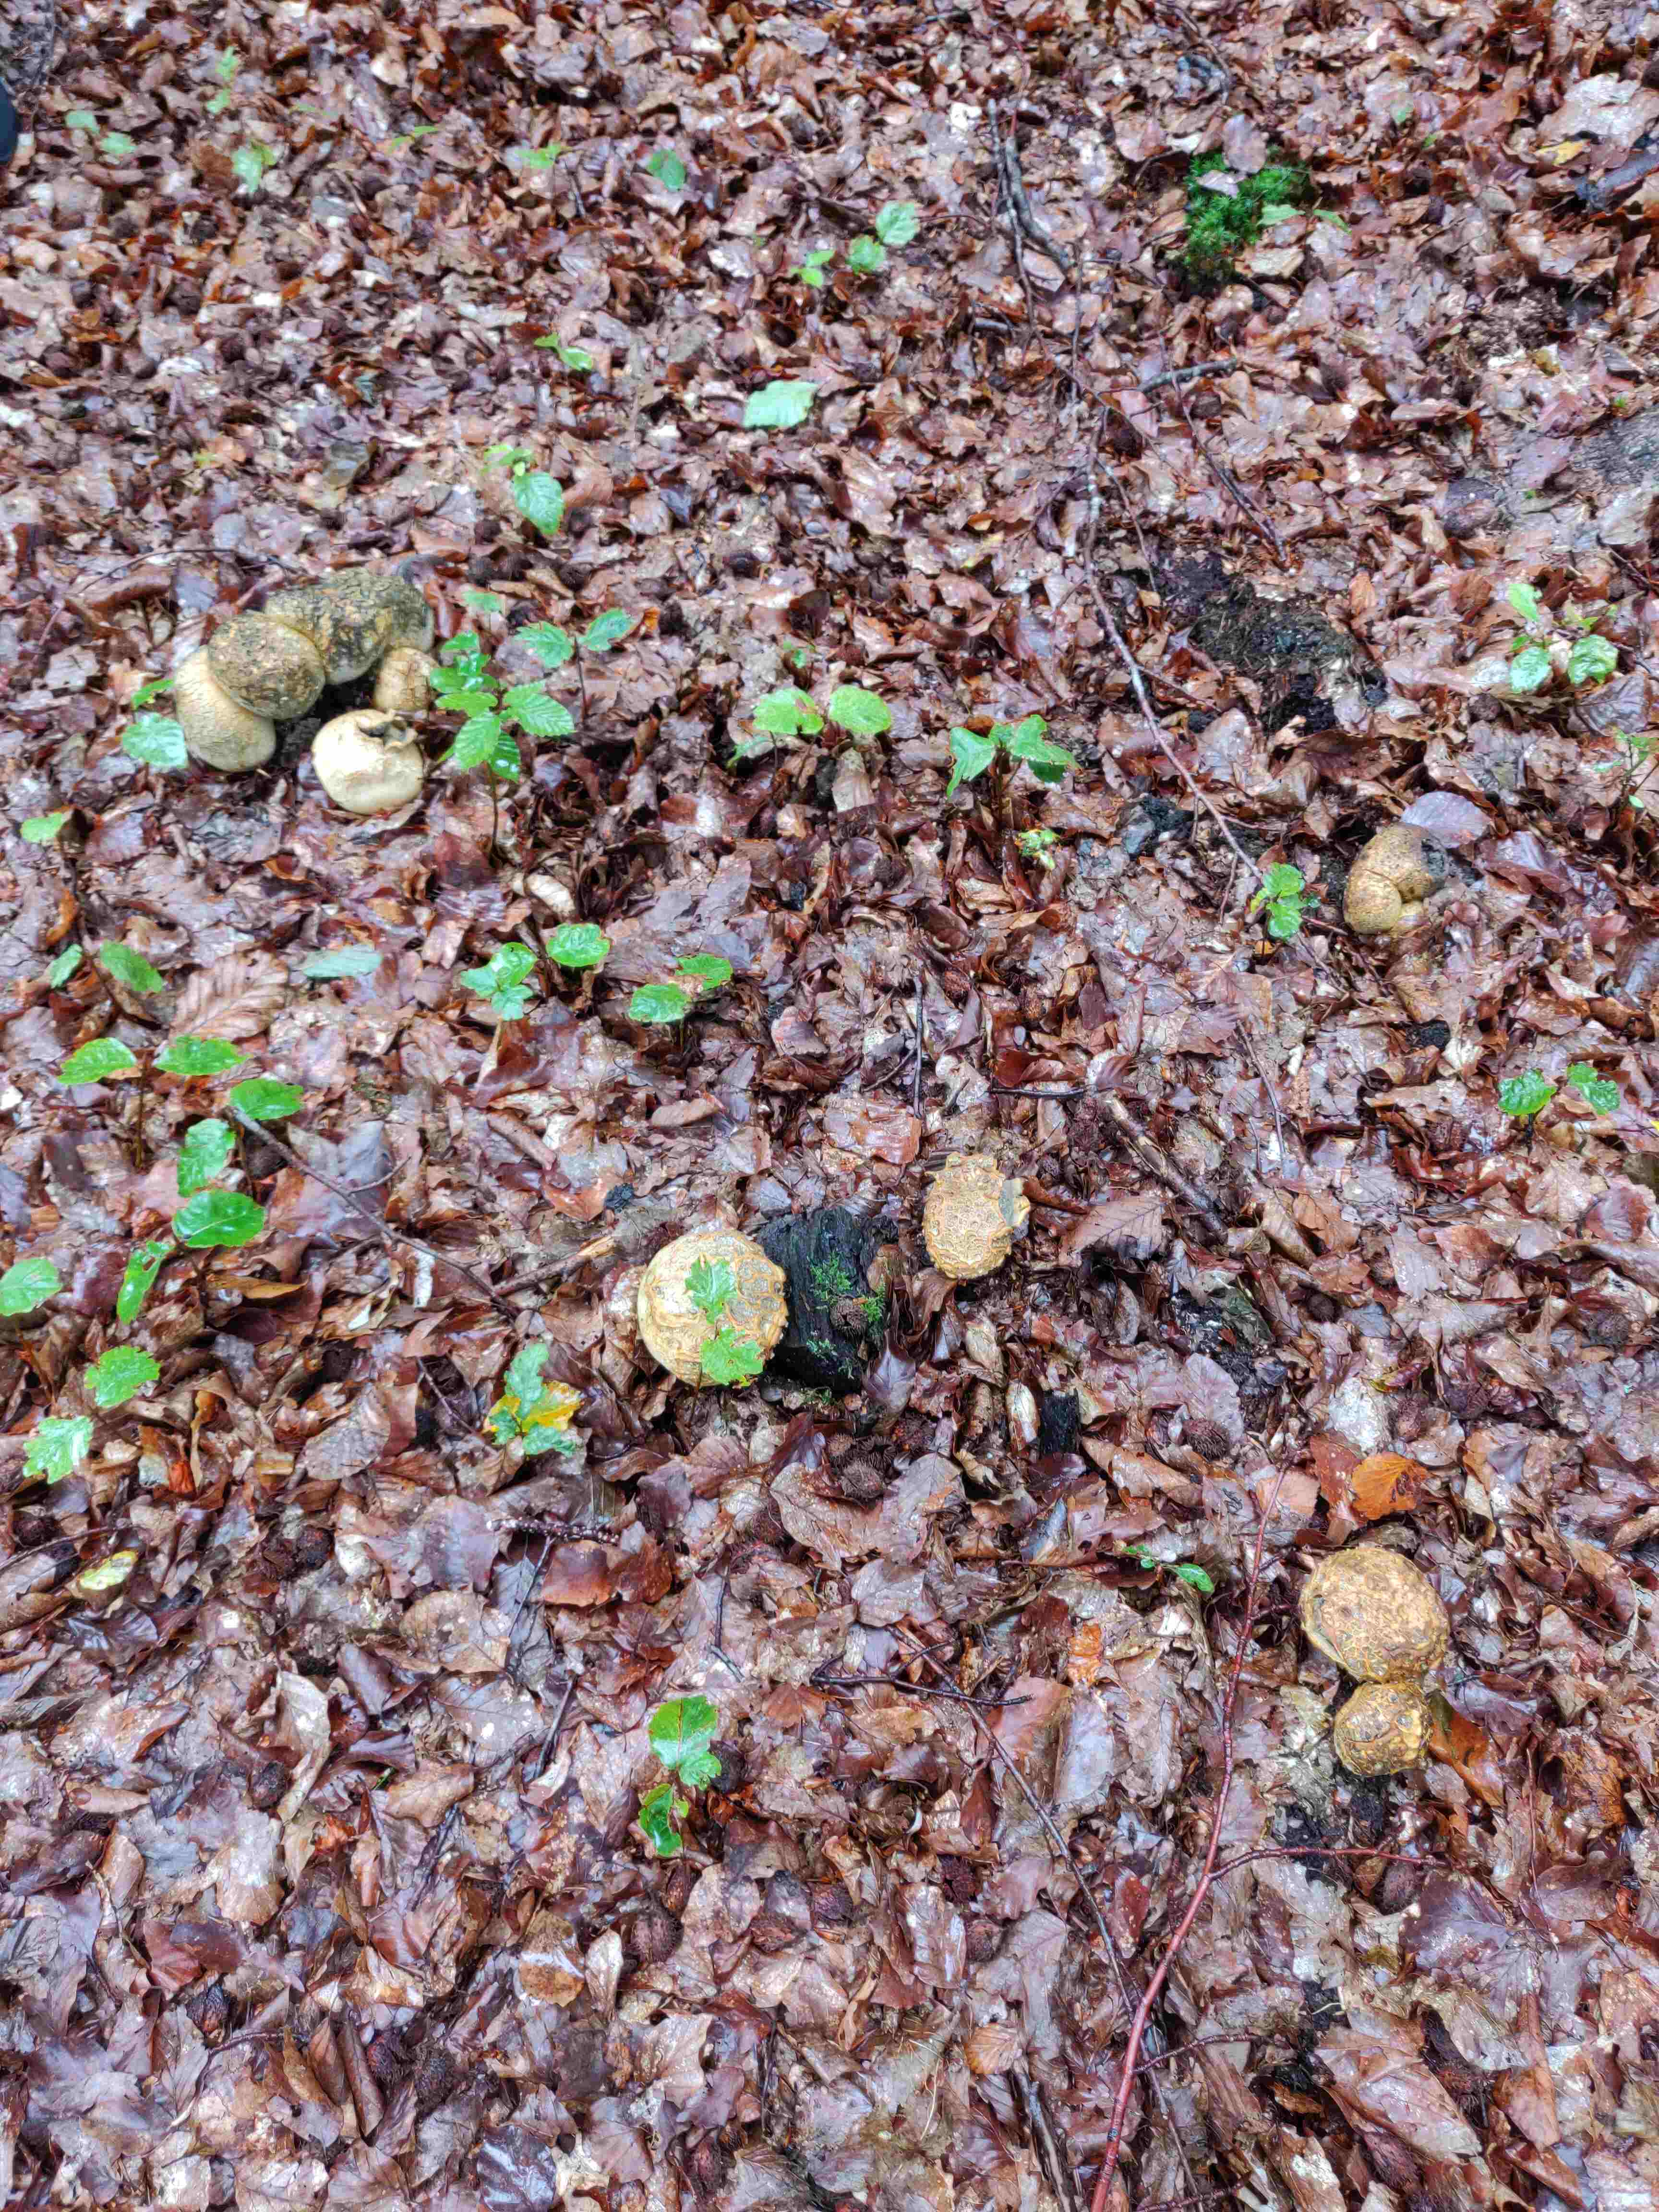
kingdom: Fungi
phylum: Basidiomycota
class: Agaricomycetes
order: Boletales
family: Sclerodermataceae
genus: Scleroderma
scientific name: Scleroderma citrinum
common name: almindelig bruskbold
